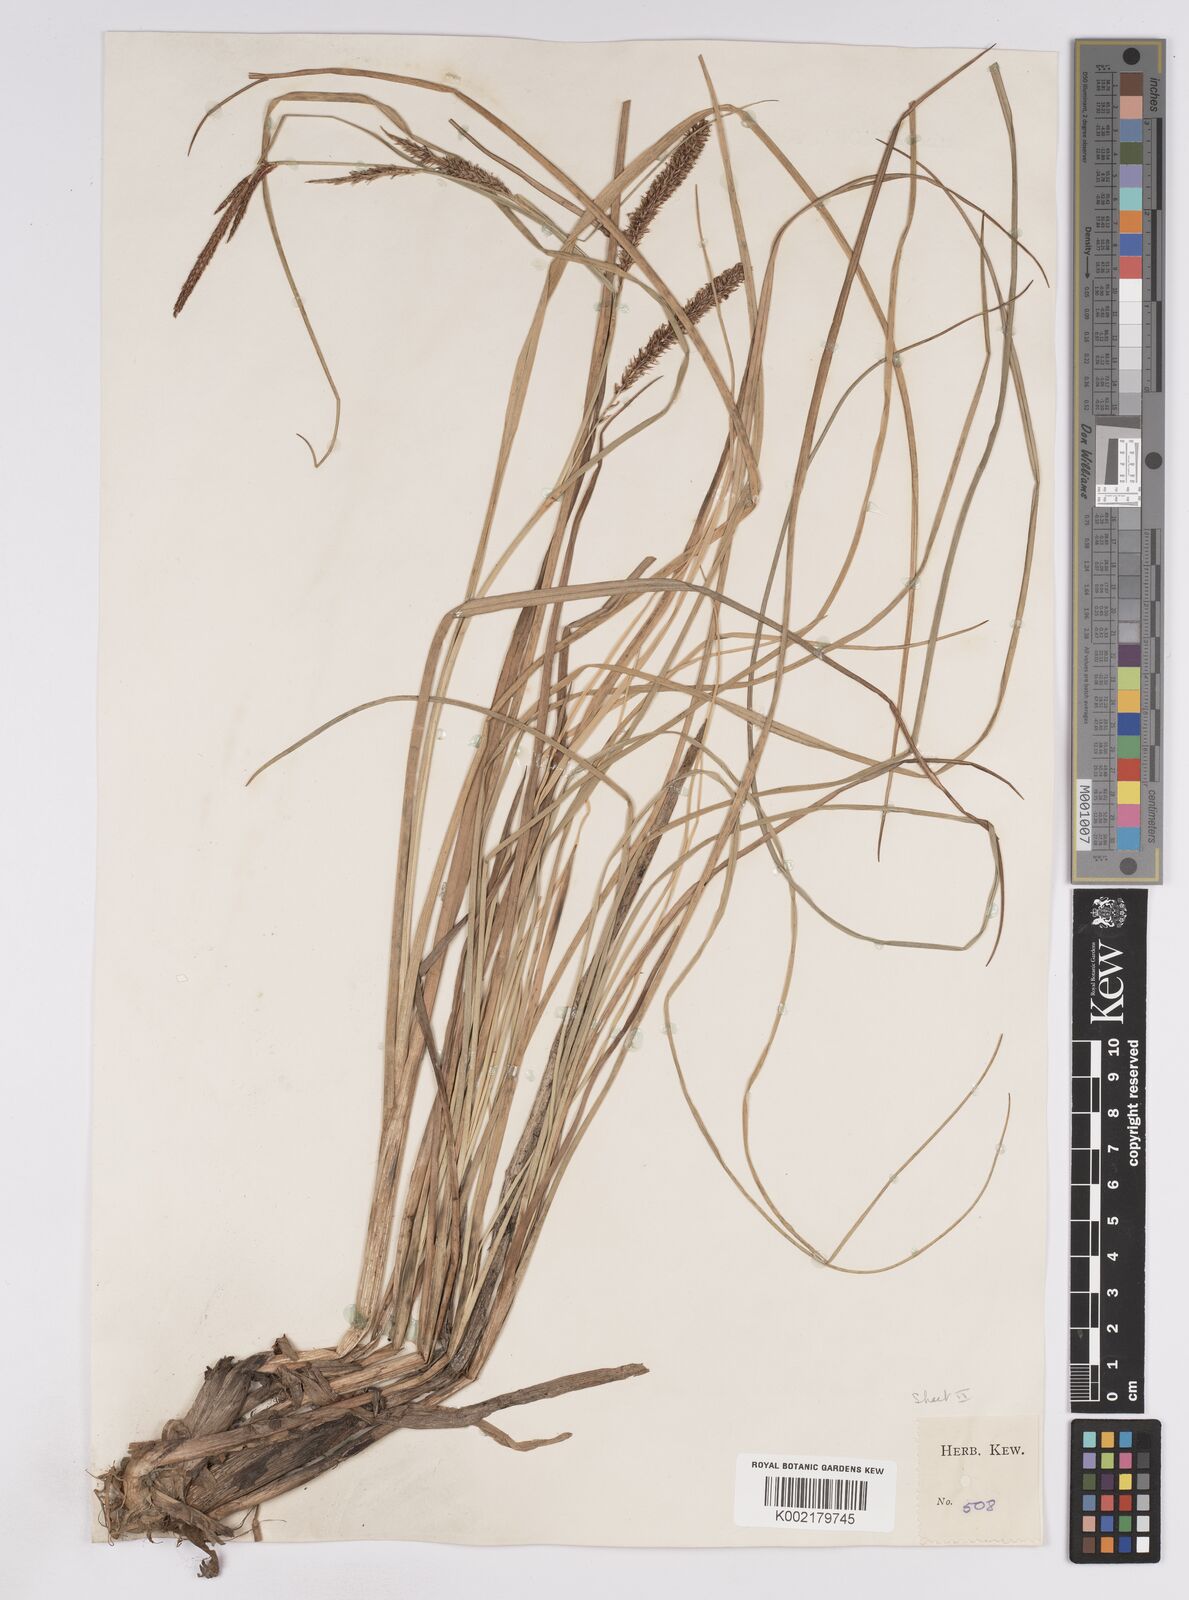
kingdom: Plantae
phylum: Tracheophyta
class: Liliopsida
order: Poales
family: Cyperaceae
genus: Carex
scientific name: Carex rostrata
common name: Bottle sedge
